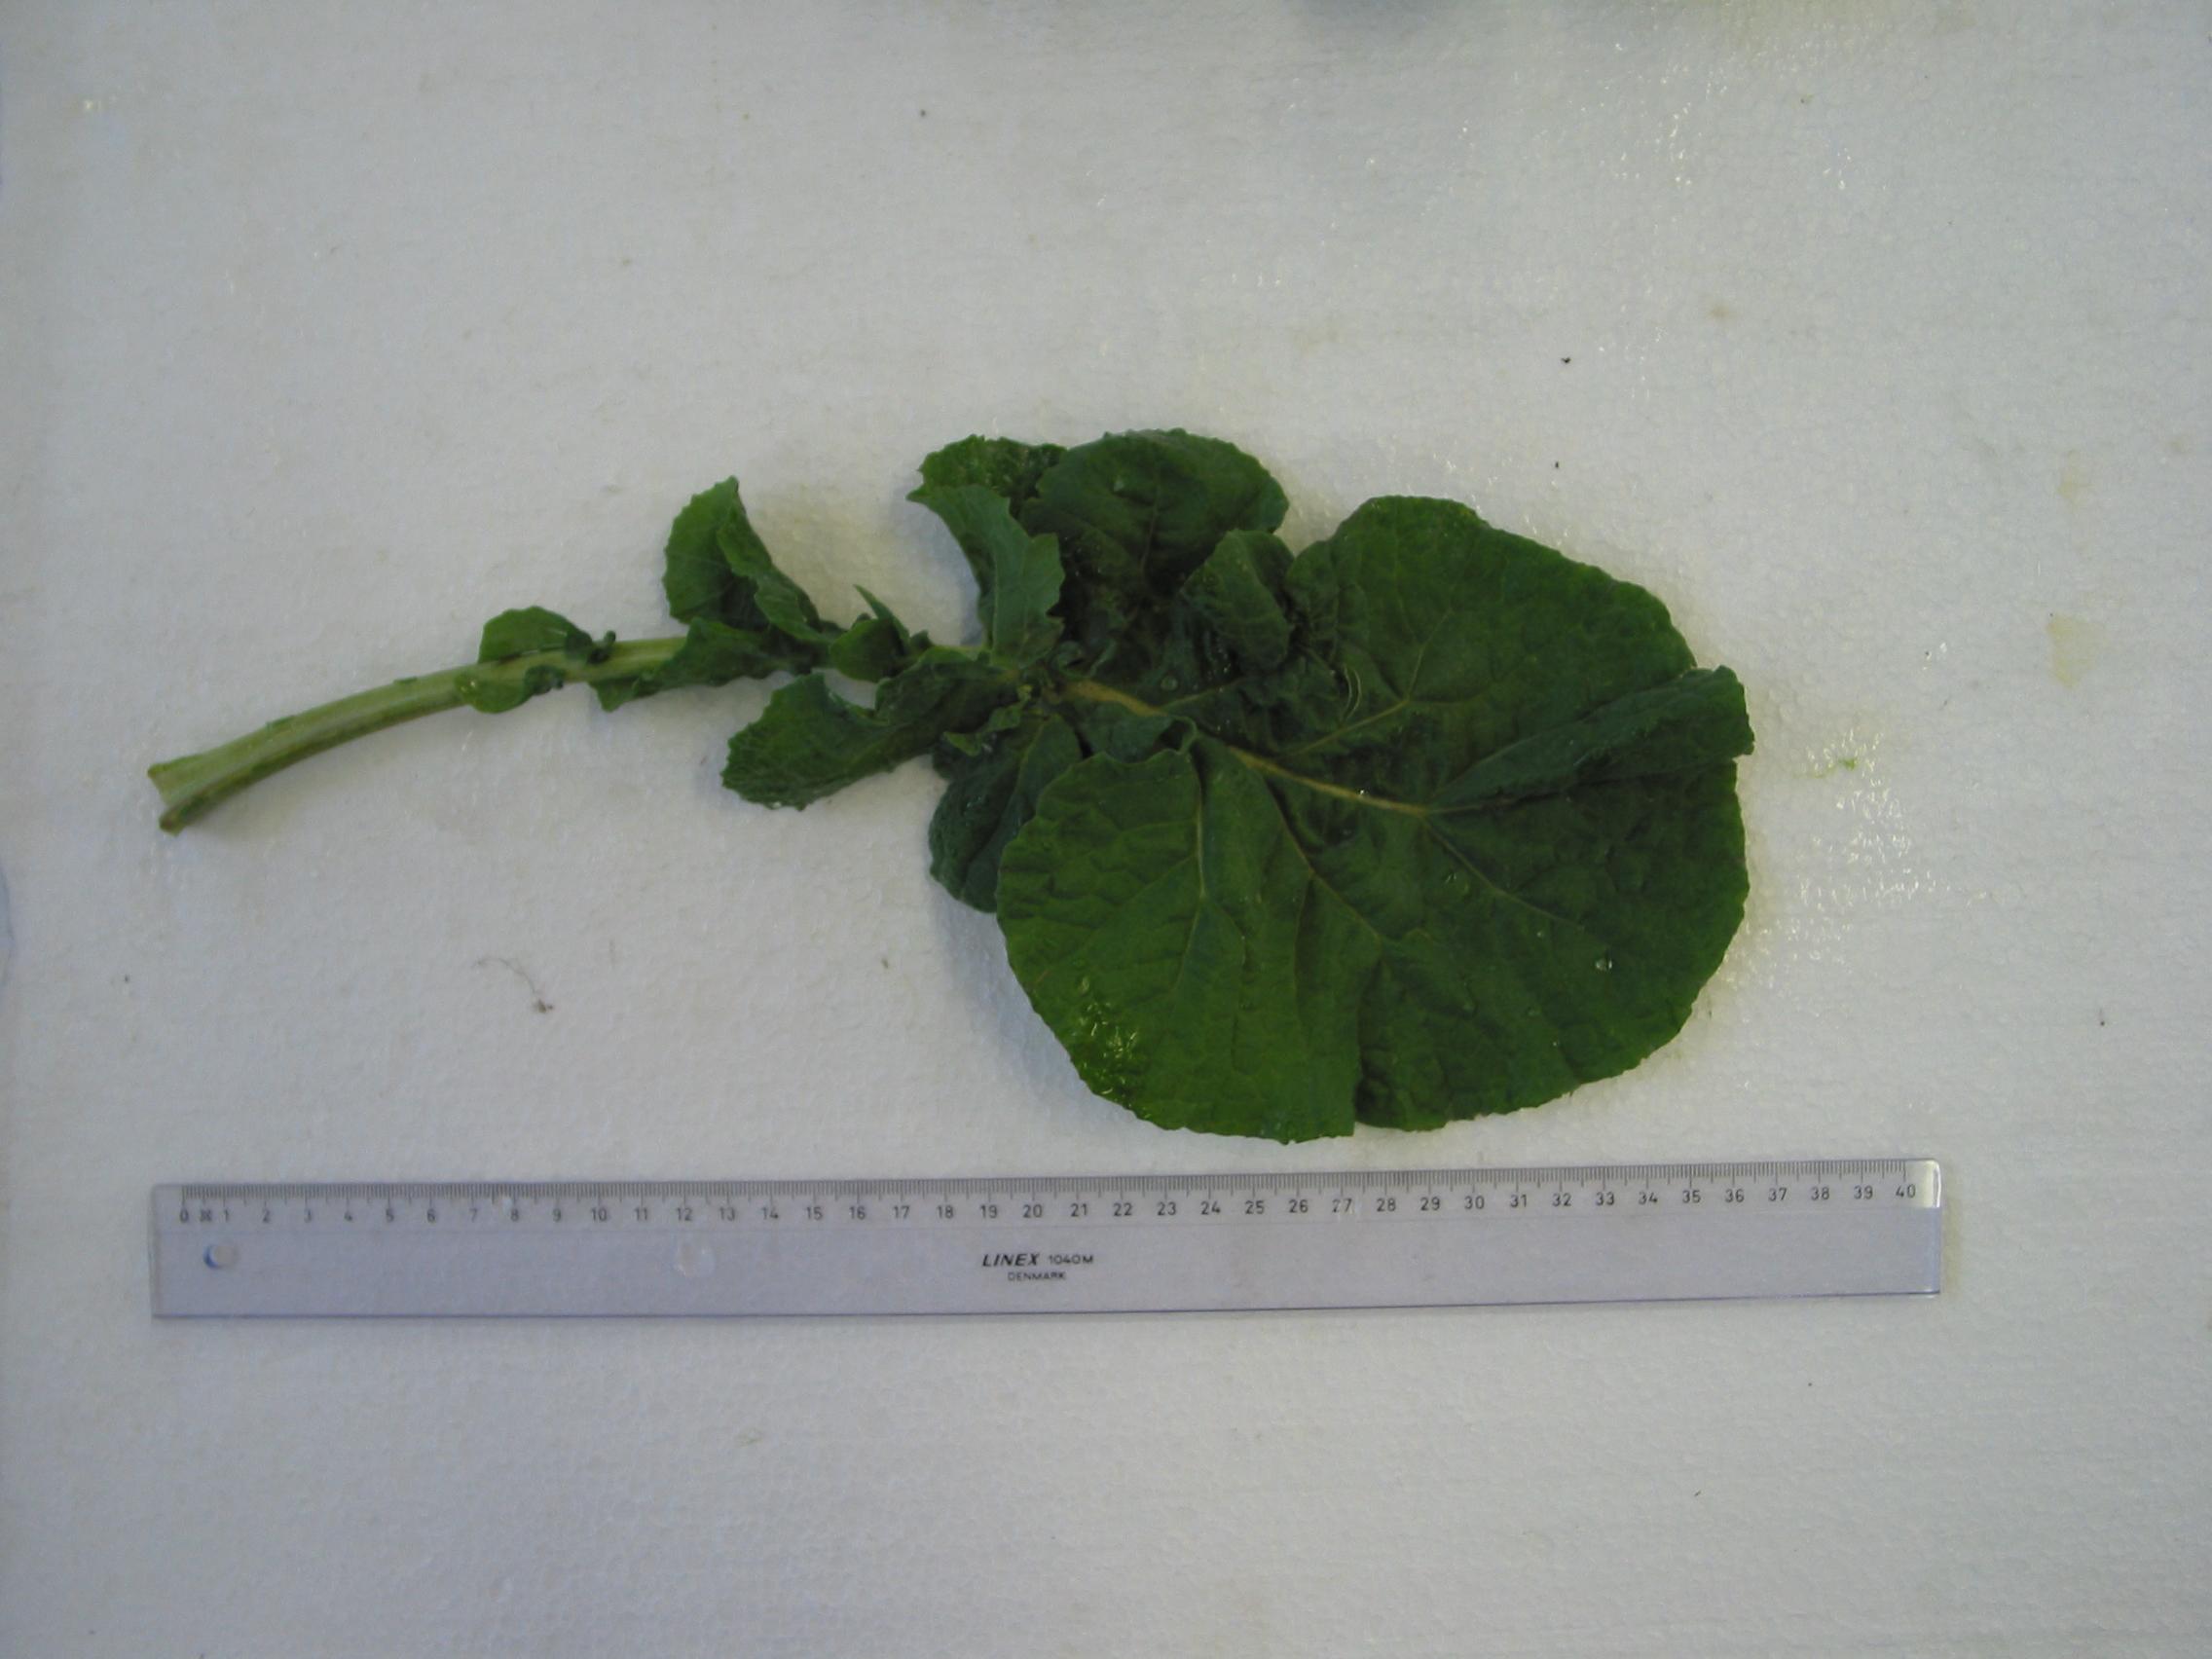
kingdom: Plantae
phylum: Tracheophyta
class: Magnoliopsida
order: Brassicales
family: Brassicaceae
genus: Brassica
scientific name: Brassica napus
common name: Rape
